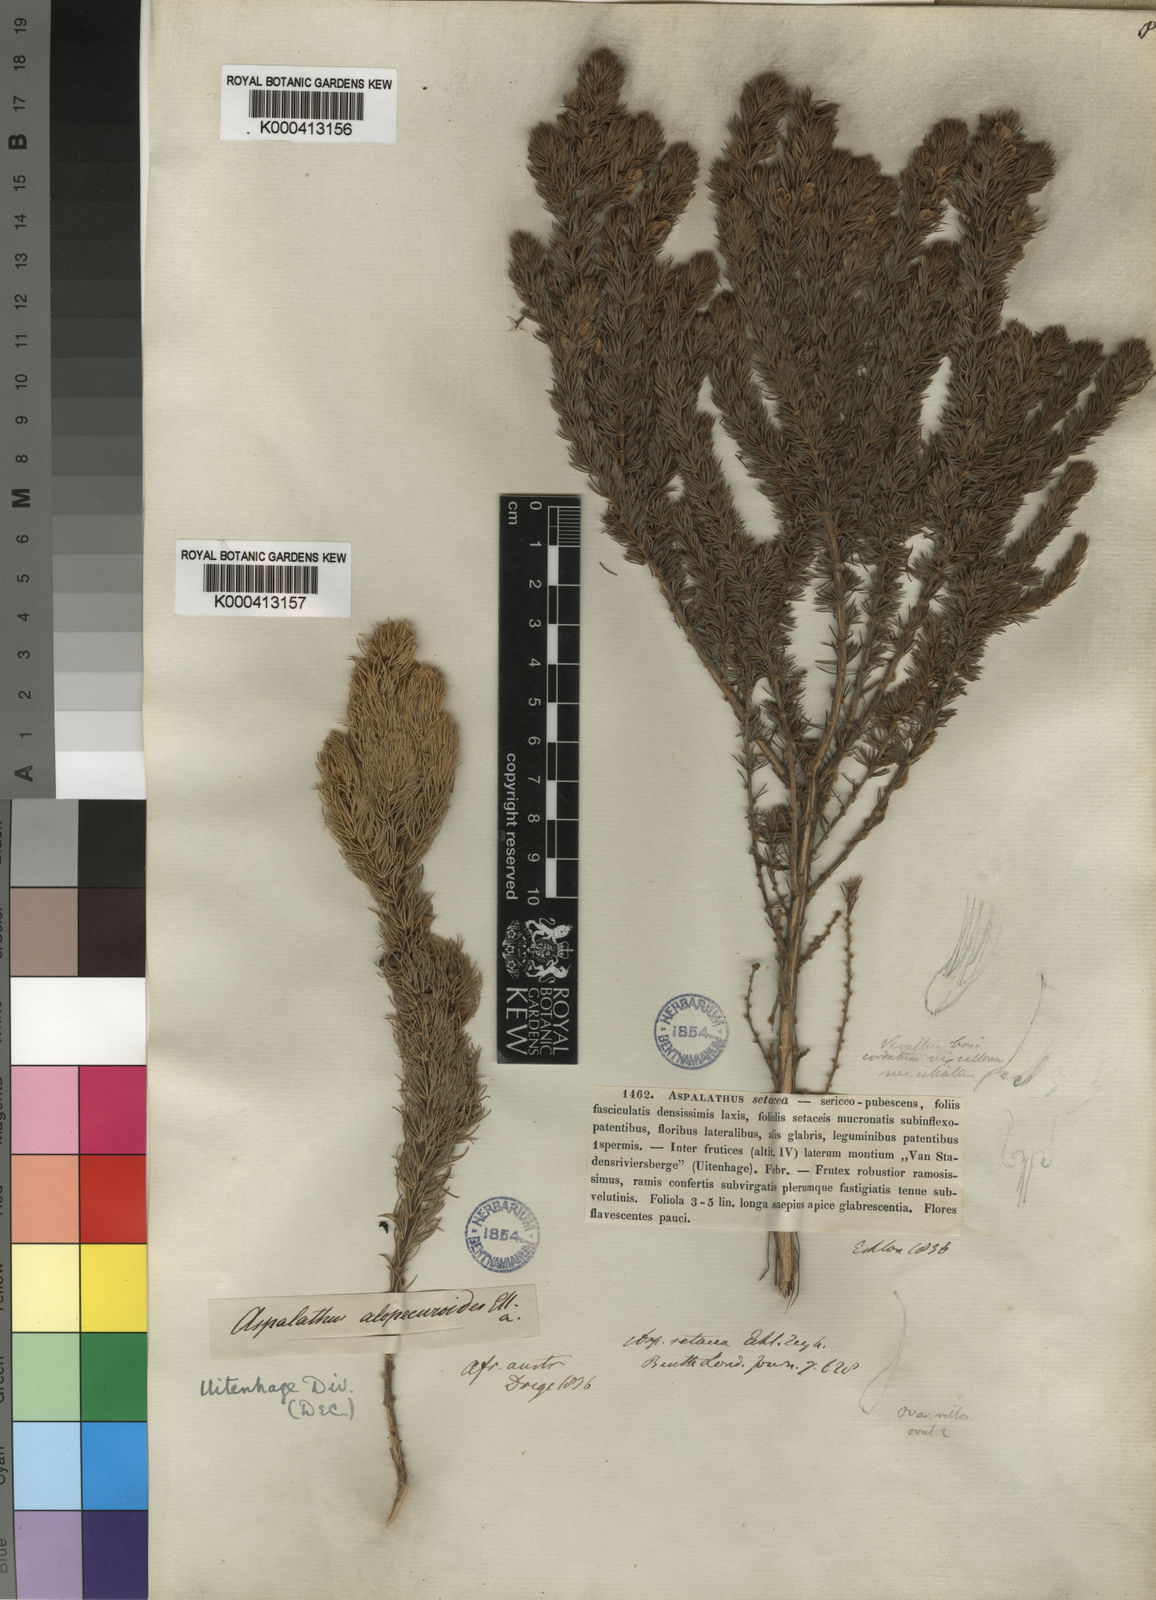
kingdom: Plantae
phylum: Tracheophyta
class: Magnoliopsida
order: Fabales
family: Fabaceae
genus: Aspalathus
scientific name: Aspalathus setacea
